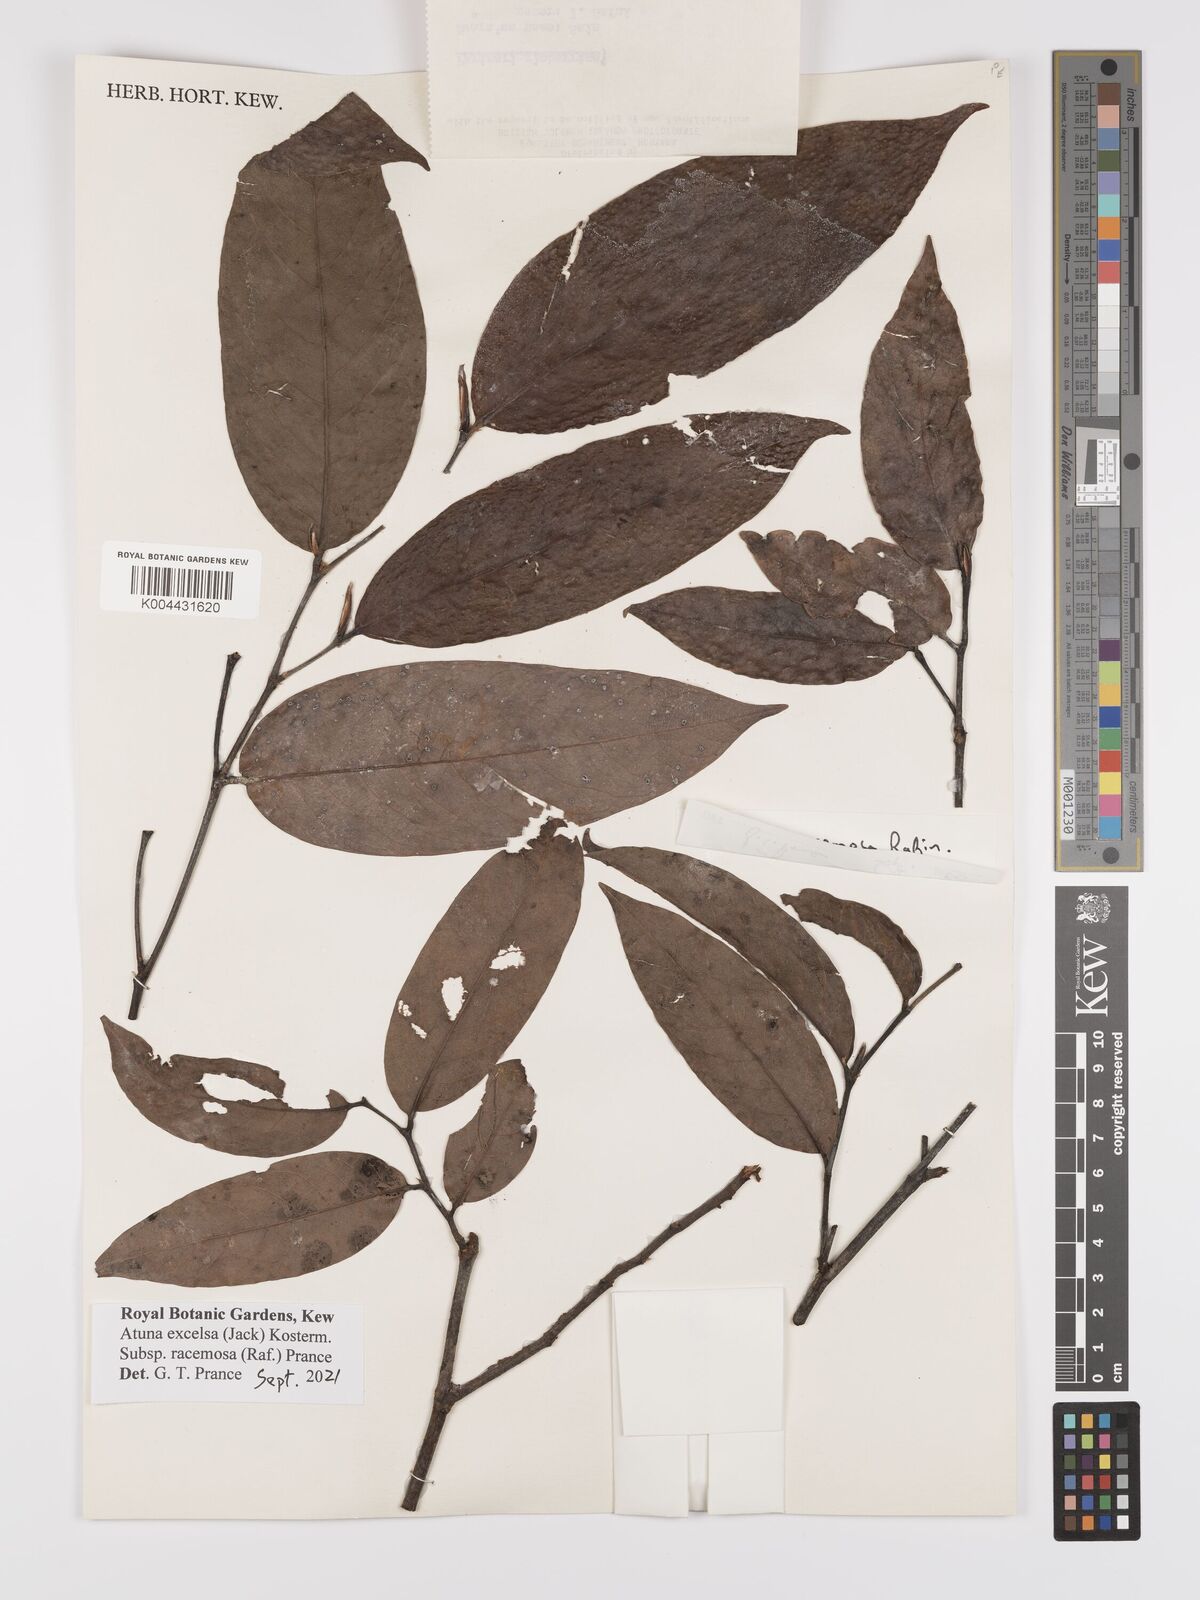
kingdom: Plantae
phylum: Tracheophyta
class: Magnoliopsida
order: Malpighiales
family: Chrysobalanaceae
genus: Atuna
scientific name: Atuna excelsa
